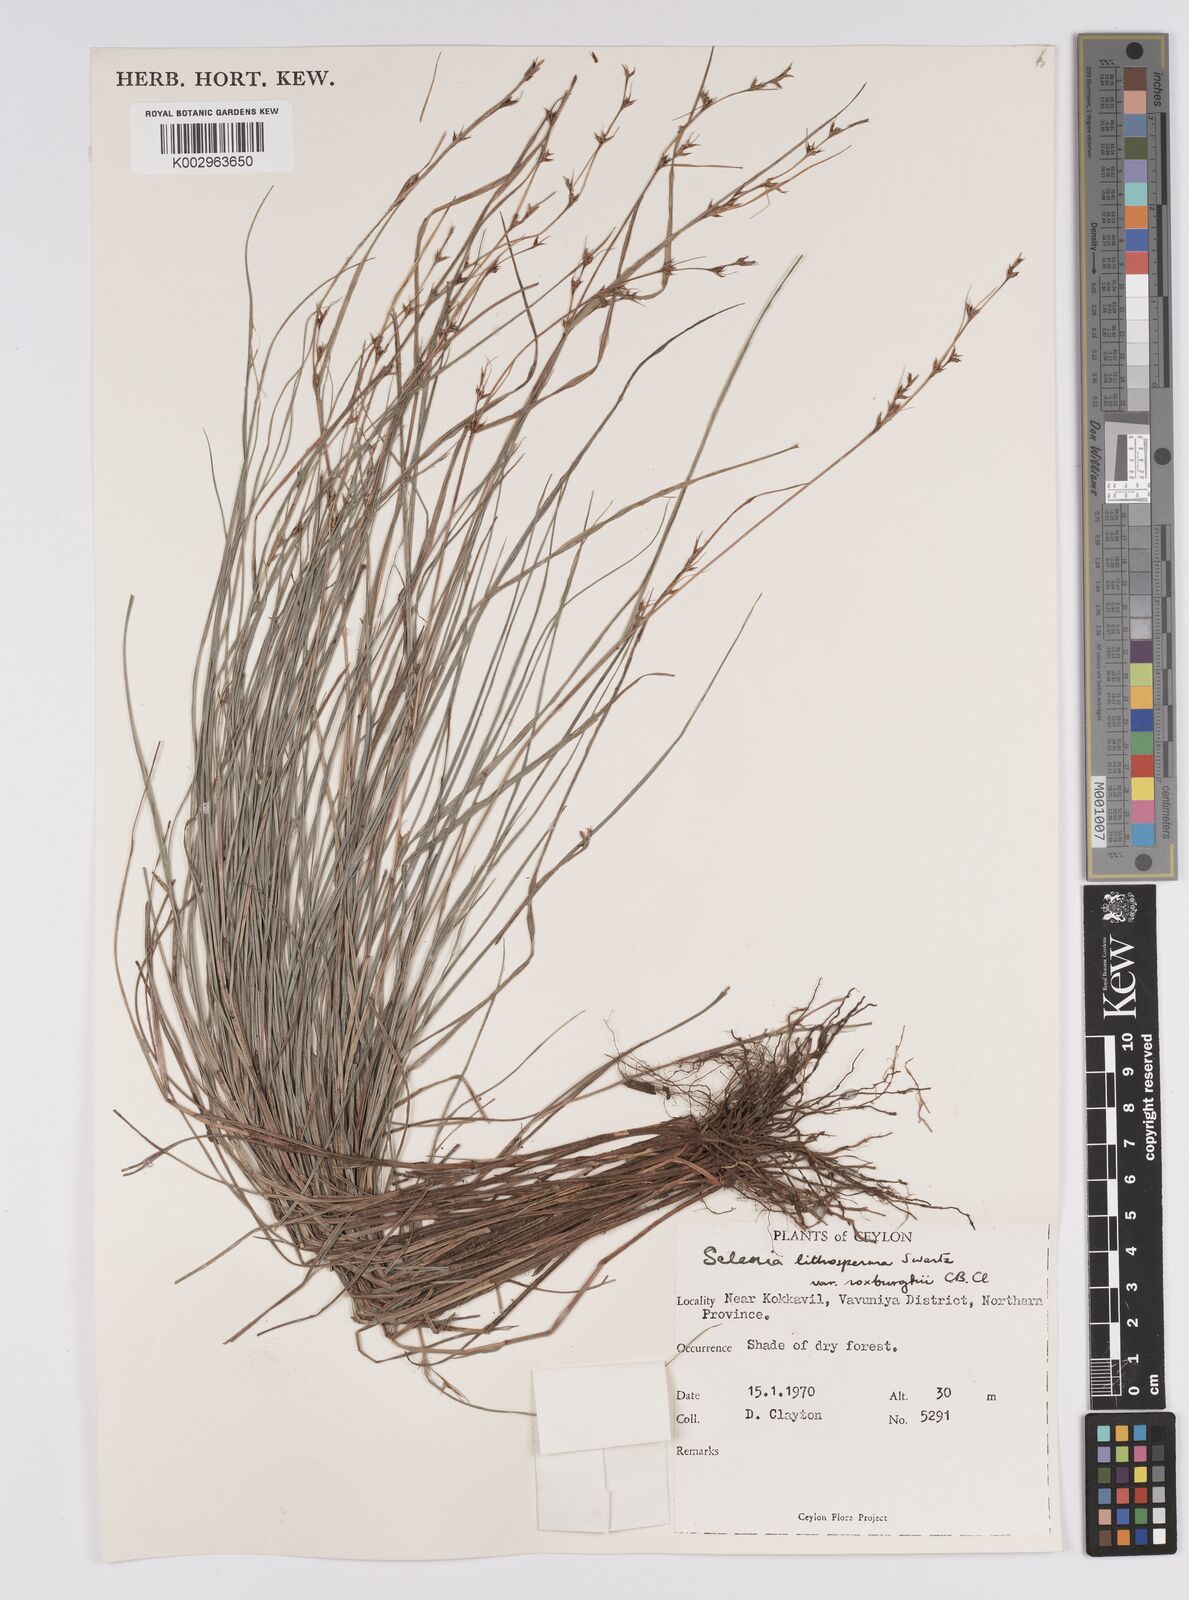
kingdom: Plantae
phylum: Tracheophyta
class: Liliopsida
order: Poales
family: Cyperaceae
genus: Scleria
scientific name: Scleria lithosperma
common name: Florida keys nut-rush
